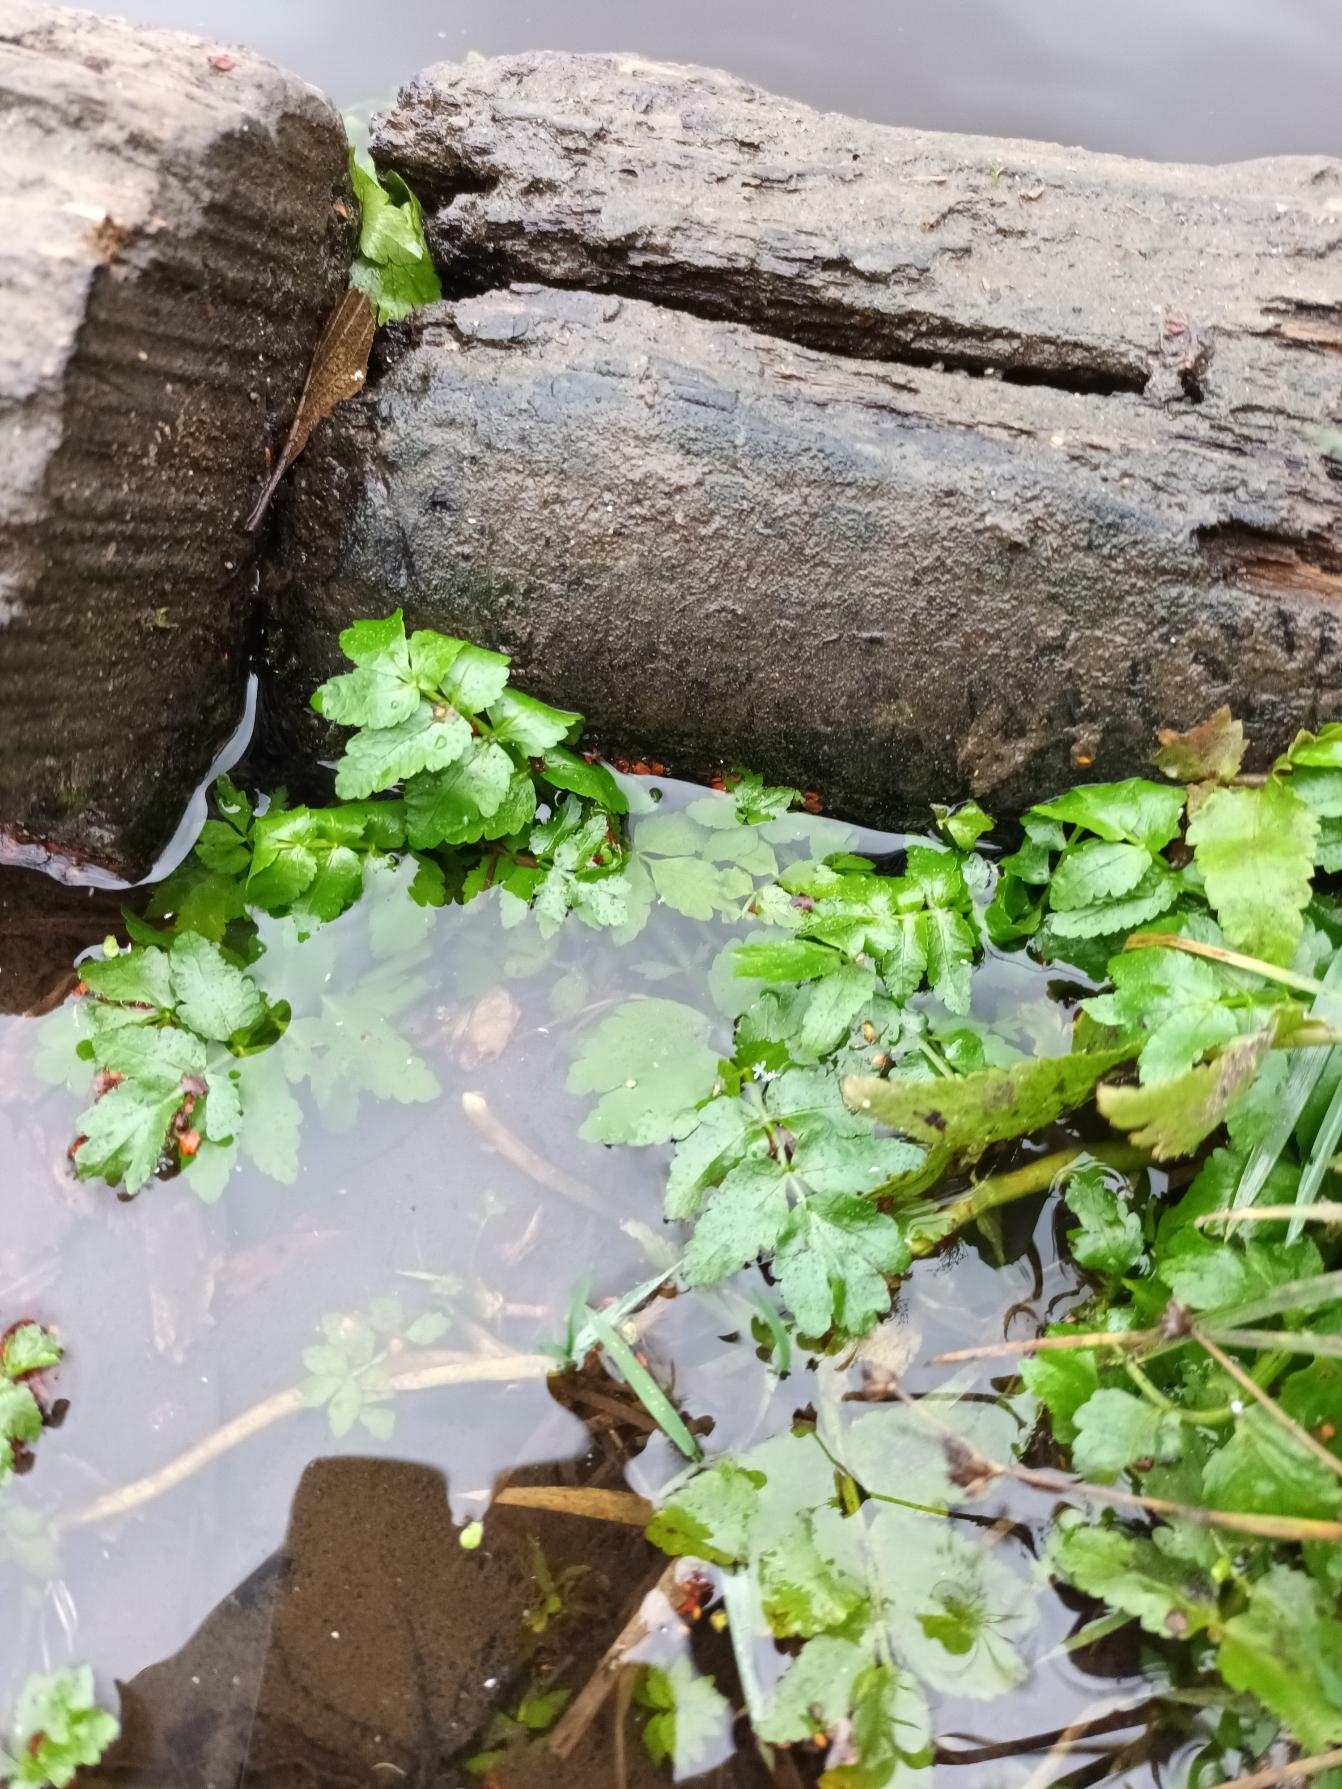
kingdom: Plantae
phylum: Tracheophyta
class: Magnoliopsida
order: Apiales
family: Apiaceae
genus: Berula
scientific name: Berula erecta
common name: Sideskærm
